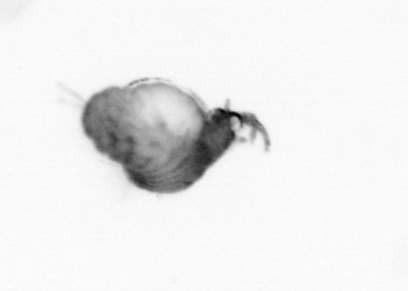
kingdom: Animalia
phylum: Annelida
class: Polychaeta
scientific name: Polychaeta
